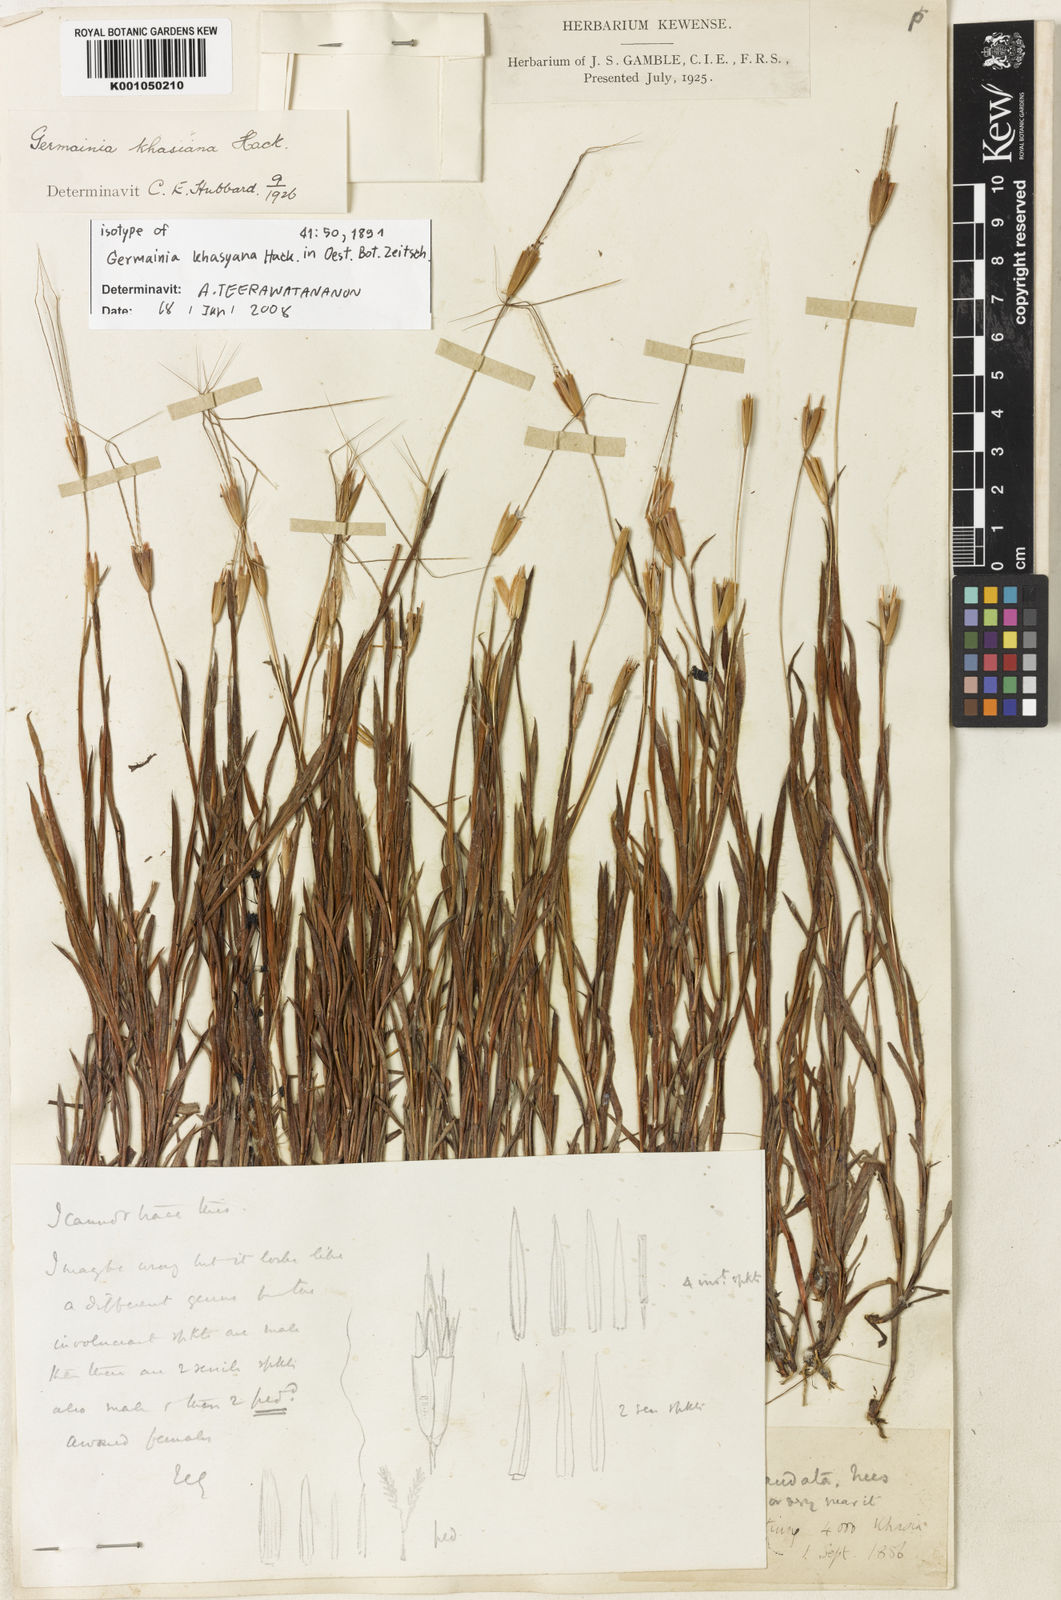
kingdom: Plantae
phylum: Tracheophyta
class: Liliopsida
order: Poales
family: Poaceae
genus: Germainia
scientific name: Germainia khasyana
